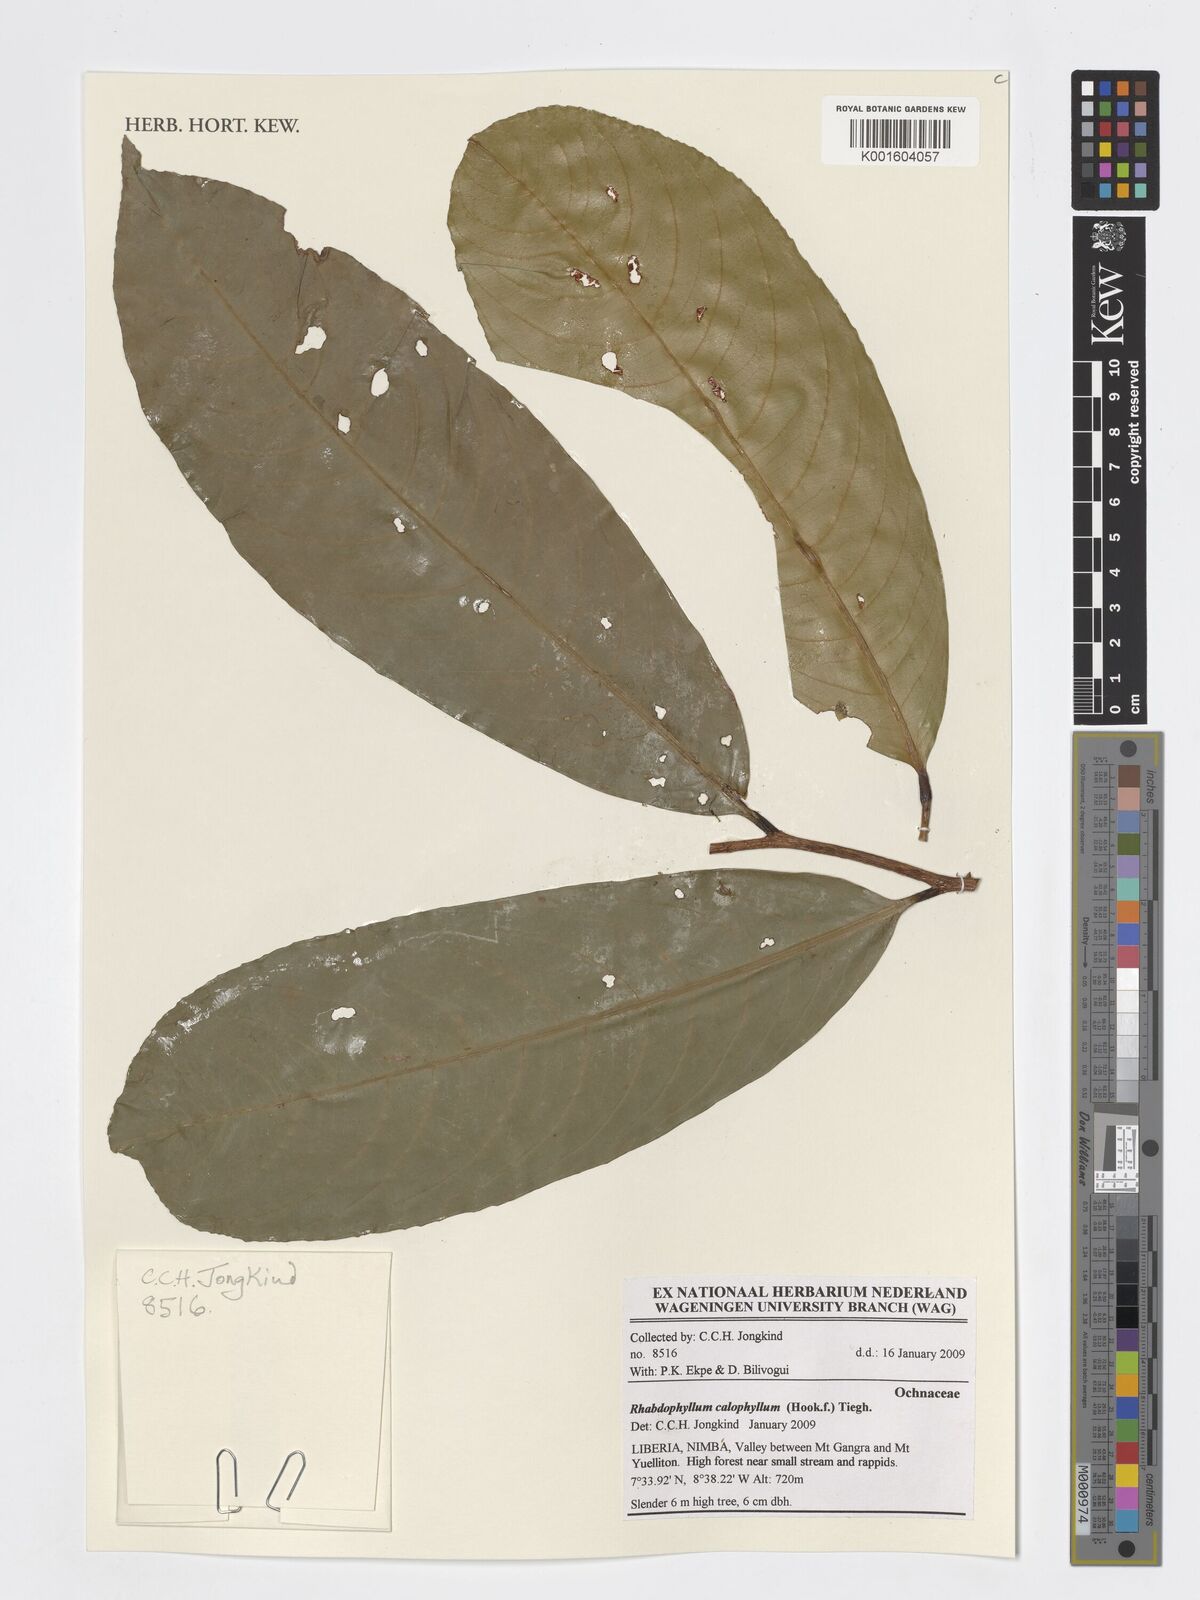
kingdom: Plantae
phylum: Tracheophyta
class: Magnoliopsida
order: Malpighiales
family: Ochnaceae
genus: Rhabdophyllum
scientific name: Rhabdophyllum calophyllum
